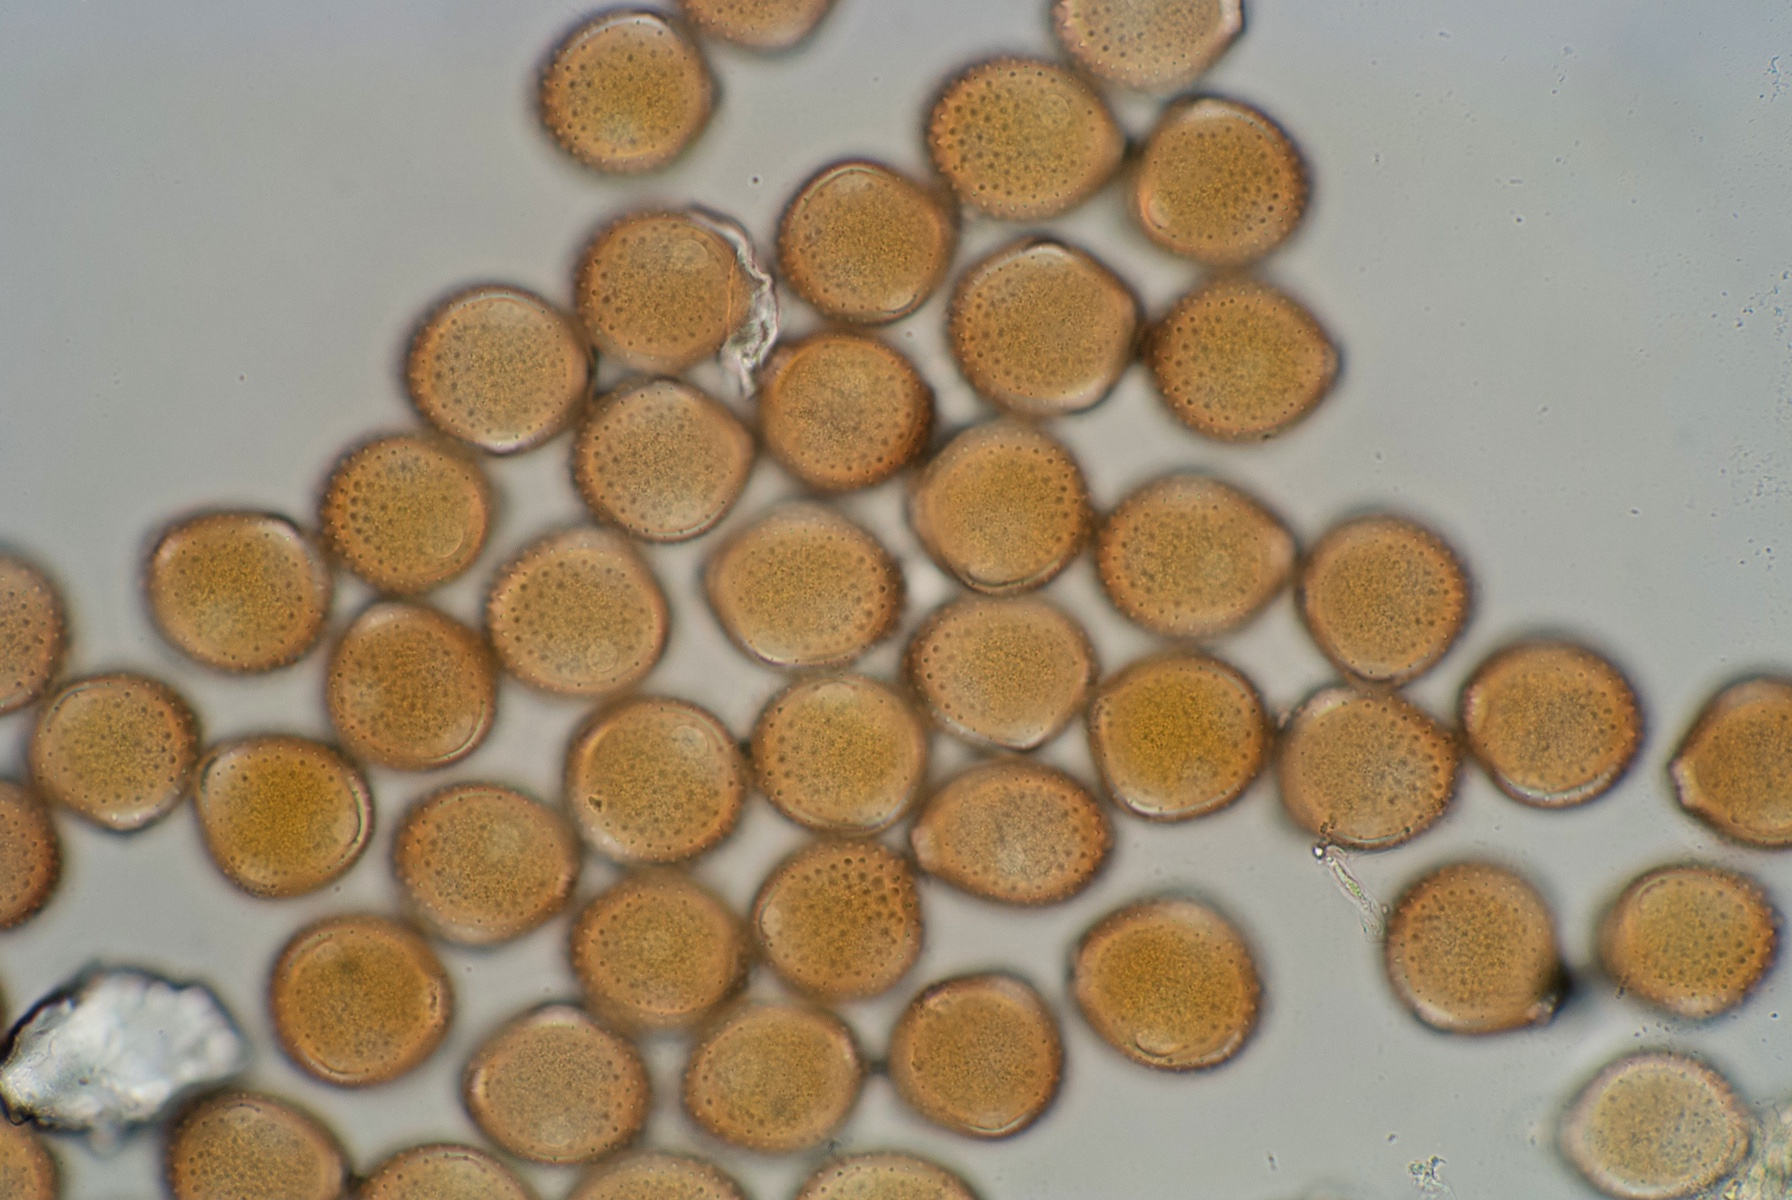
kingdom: Fungi
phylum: Basidiomycota
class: Pucciniomycetes
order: Pucciniales
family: Pucciniaceae
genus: Puccinia
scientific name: Puccinia bornmuelleri
